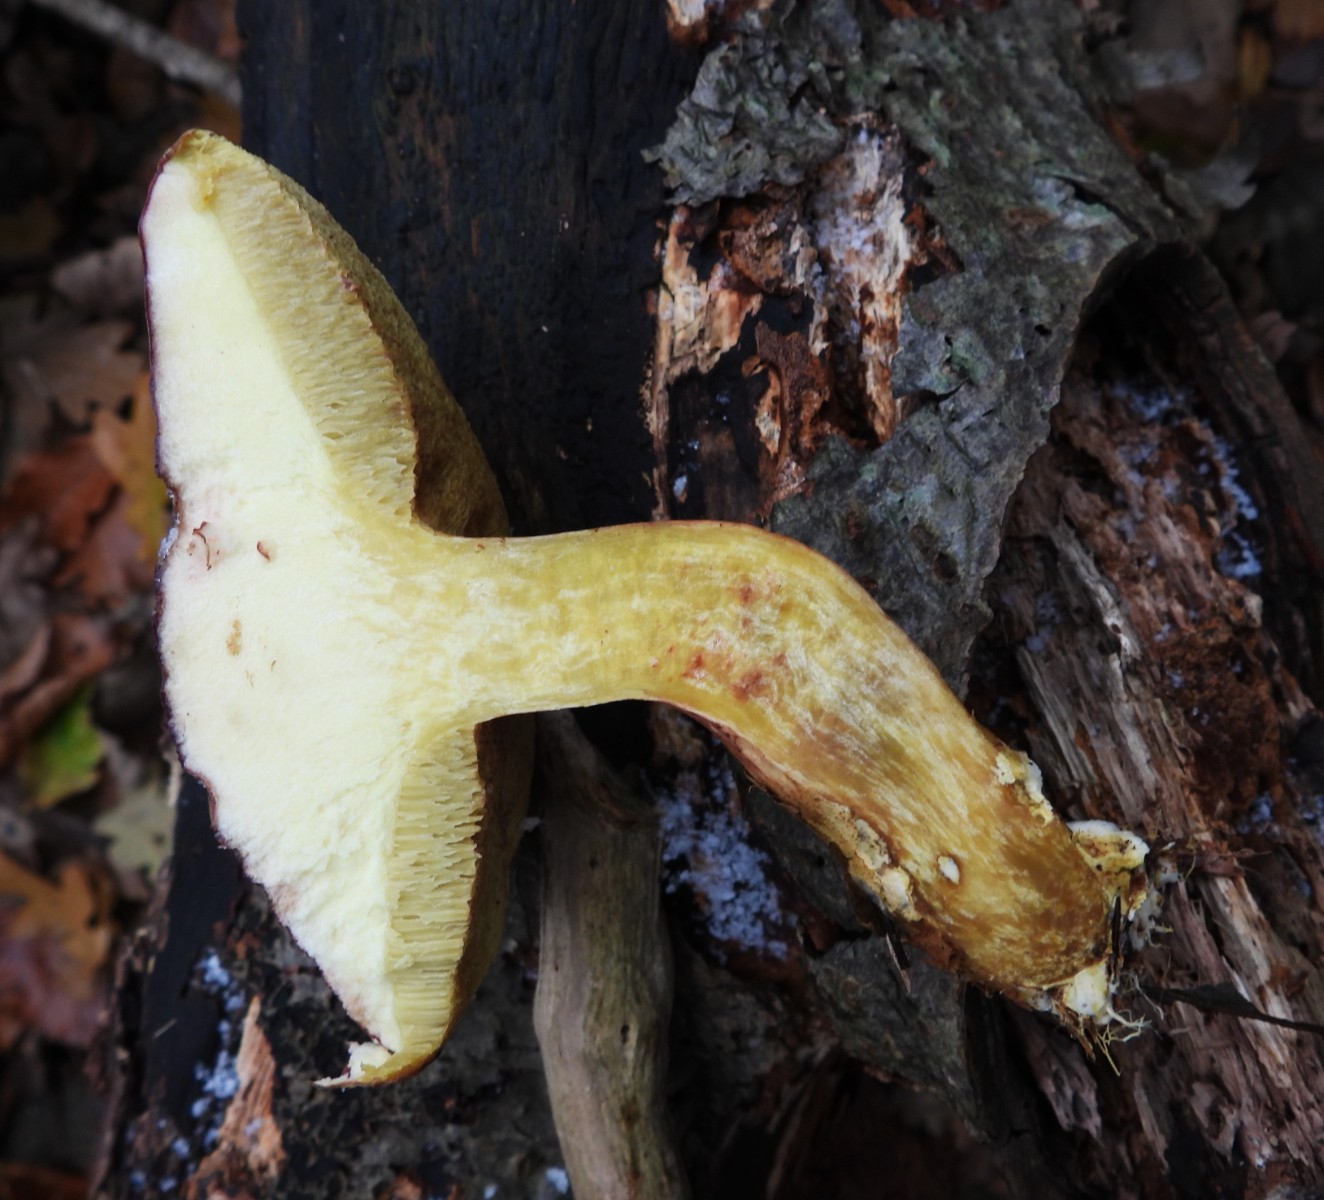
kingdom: Fungi
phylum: Basidiomycota
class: Agaricomycetes
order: Boletales
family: Boletaceae
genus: Xerocomellus
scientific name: Xerocomellus pruinatus
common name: dugget rørhat
